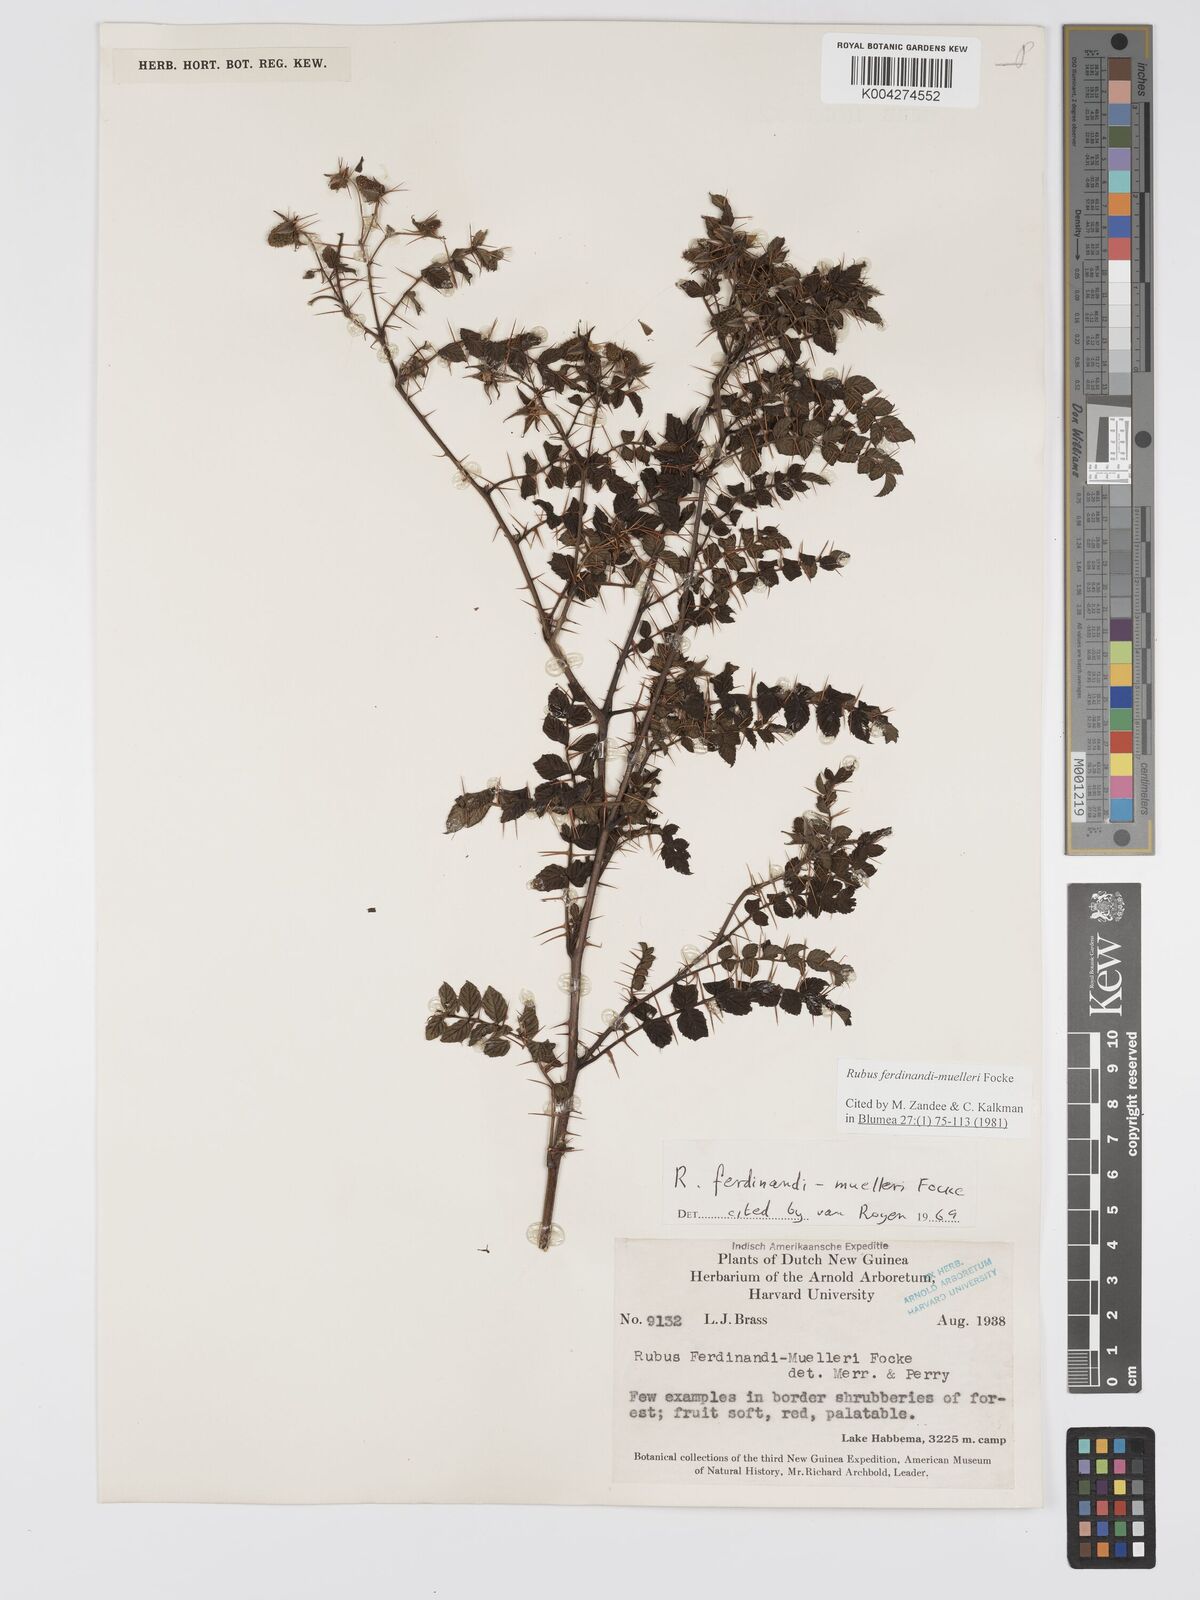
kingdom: Plantae
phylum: Tracheophyta
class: Magnoliopsida
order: Rosales
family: Rosaceae
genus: Rubus
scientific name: Rubus ferdinandimuelleri
